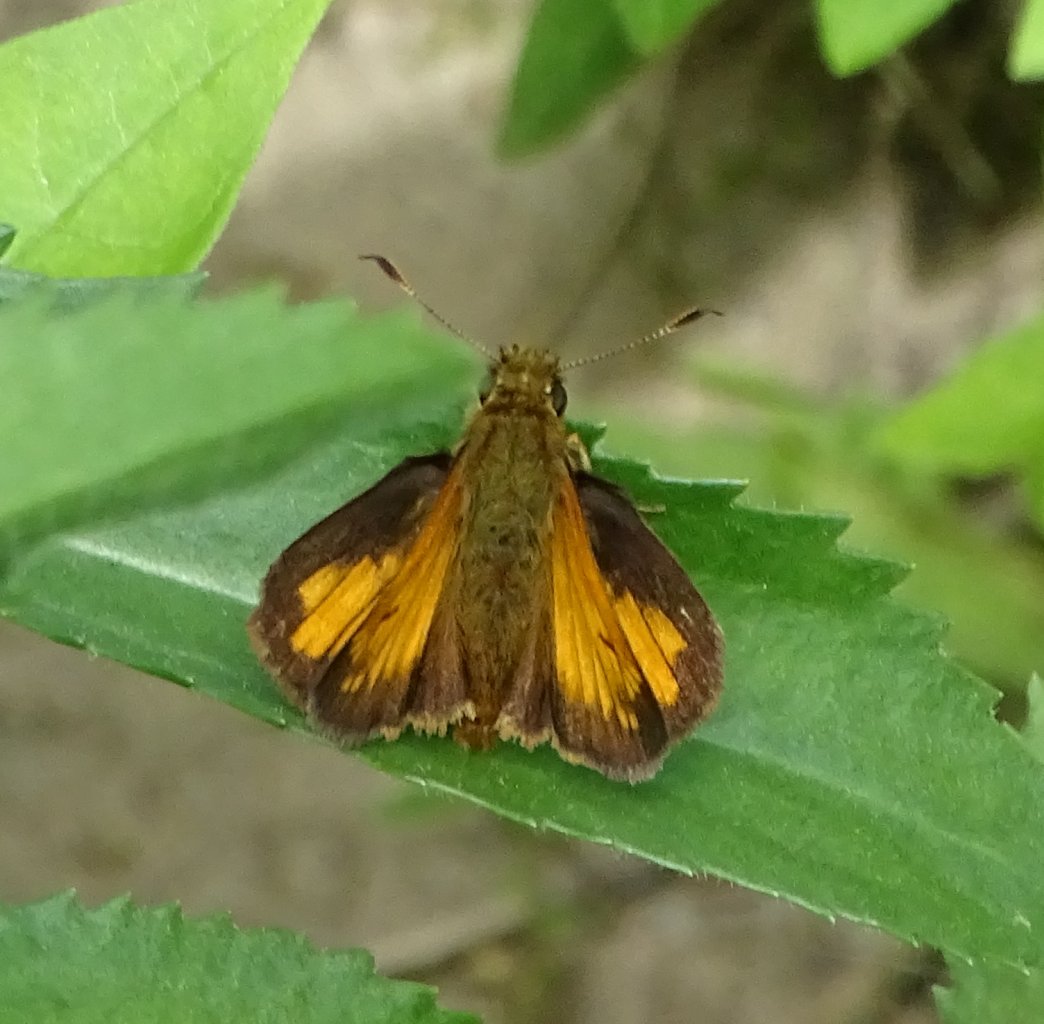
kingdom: Animalia
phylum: Arthropoda
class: Insecta
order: Lepidoptera
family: Hesperiidae
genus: Lon
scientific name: Lon hobomok
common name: Hobomok Skipper
